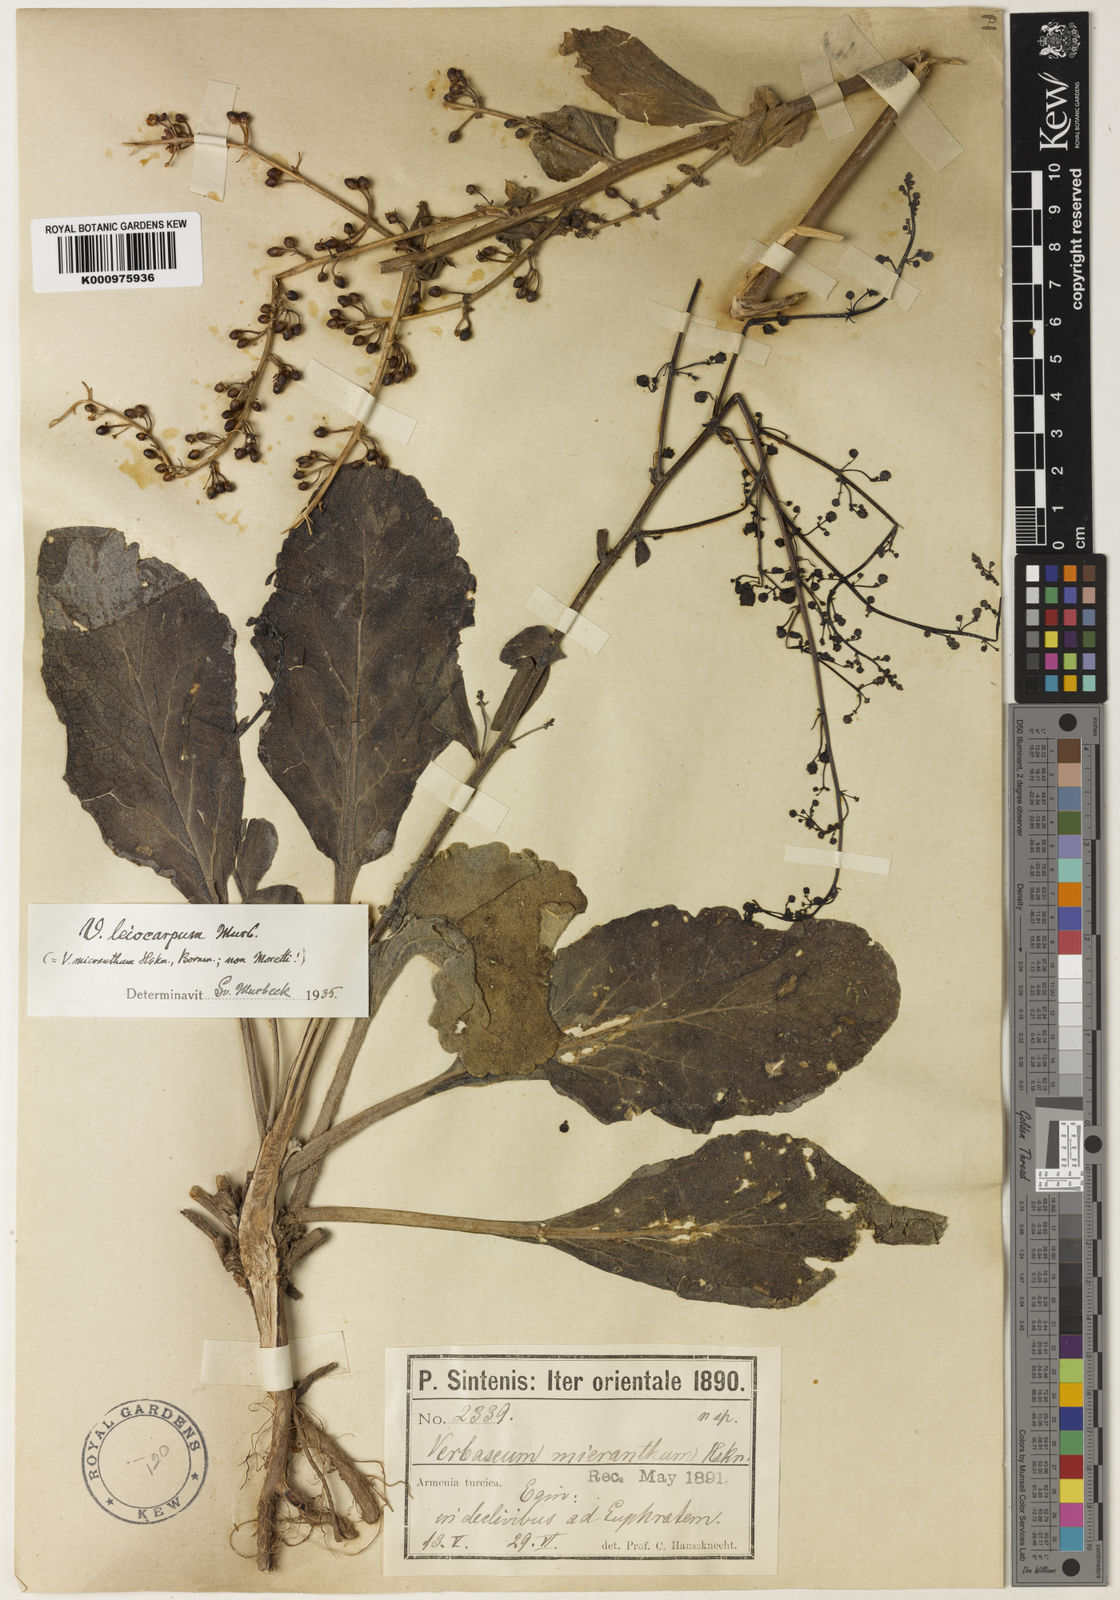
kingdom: Plantae
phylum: Tracheophyta
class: Magnoliopsida
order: Lamiales
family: Scrophulariaceae
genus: Verbascum
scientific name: Verbascum leiocarpum
